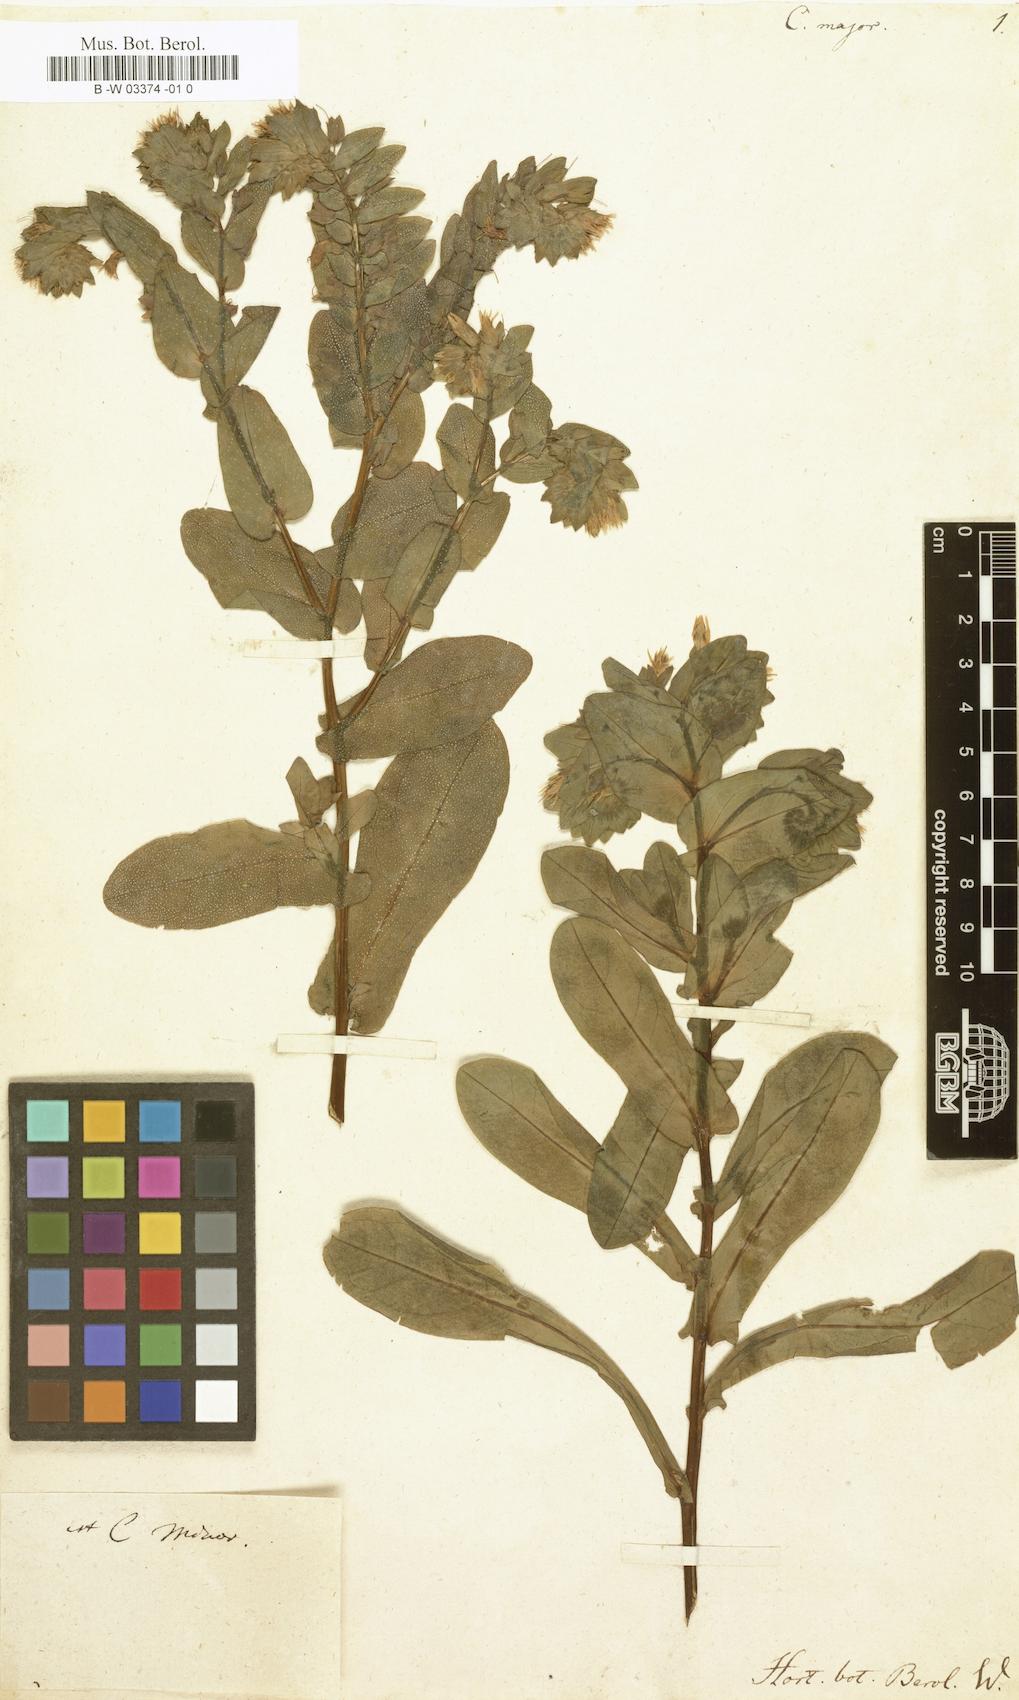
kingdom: Plantae
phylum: Tracheophyta
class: Magnoliopsida
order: Boraginales
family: Boraginaceae
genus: Cerinthe
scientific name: Cerinthe major
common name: Greater honeywort
